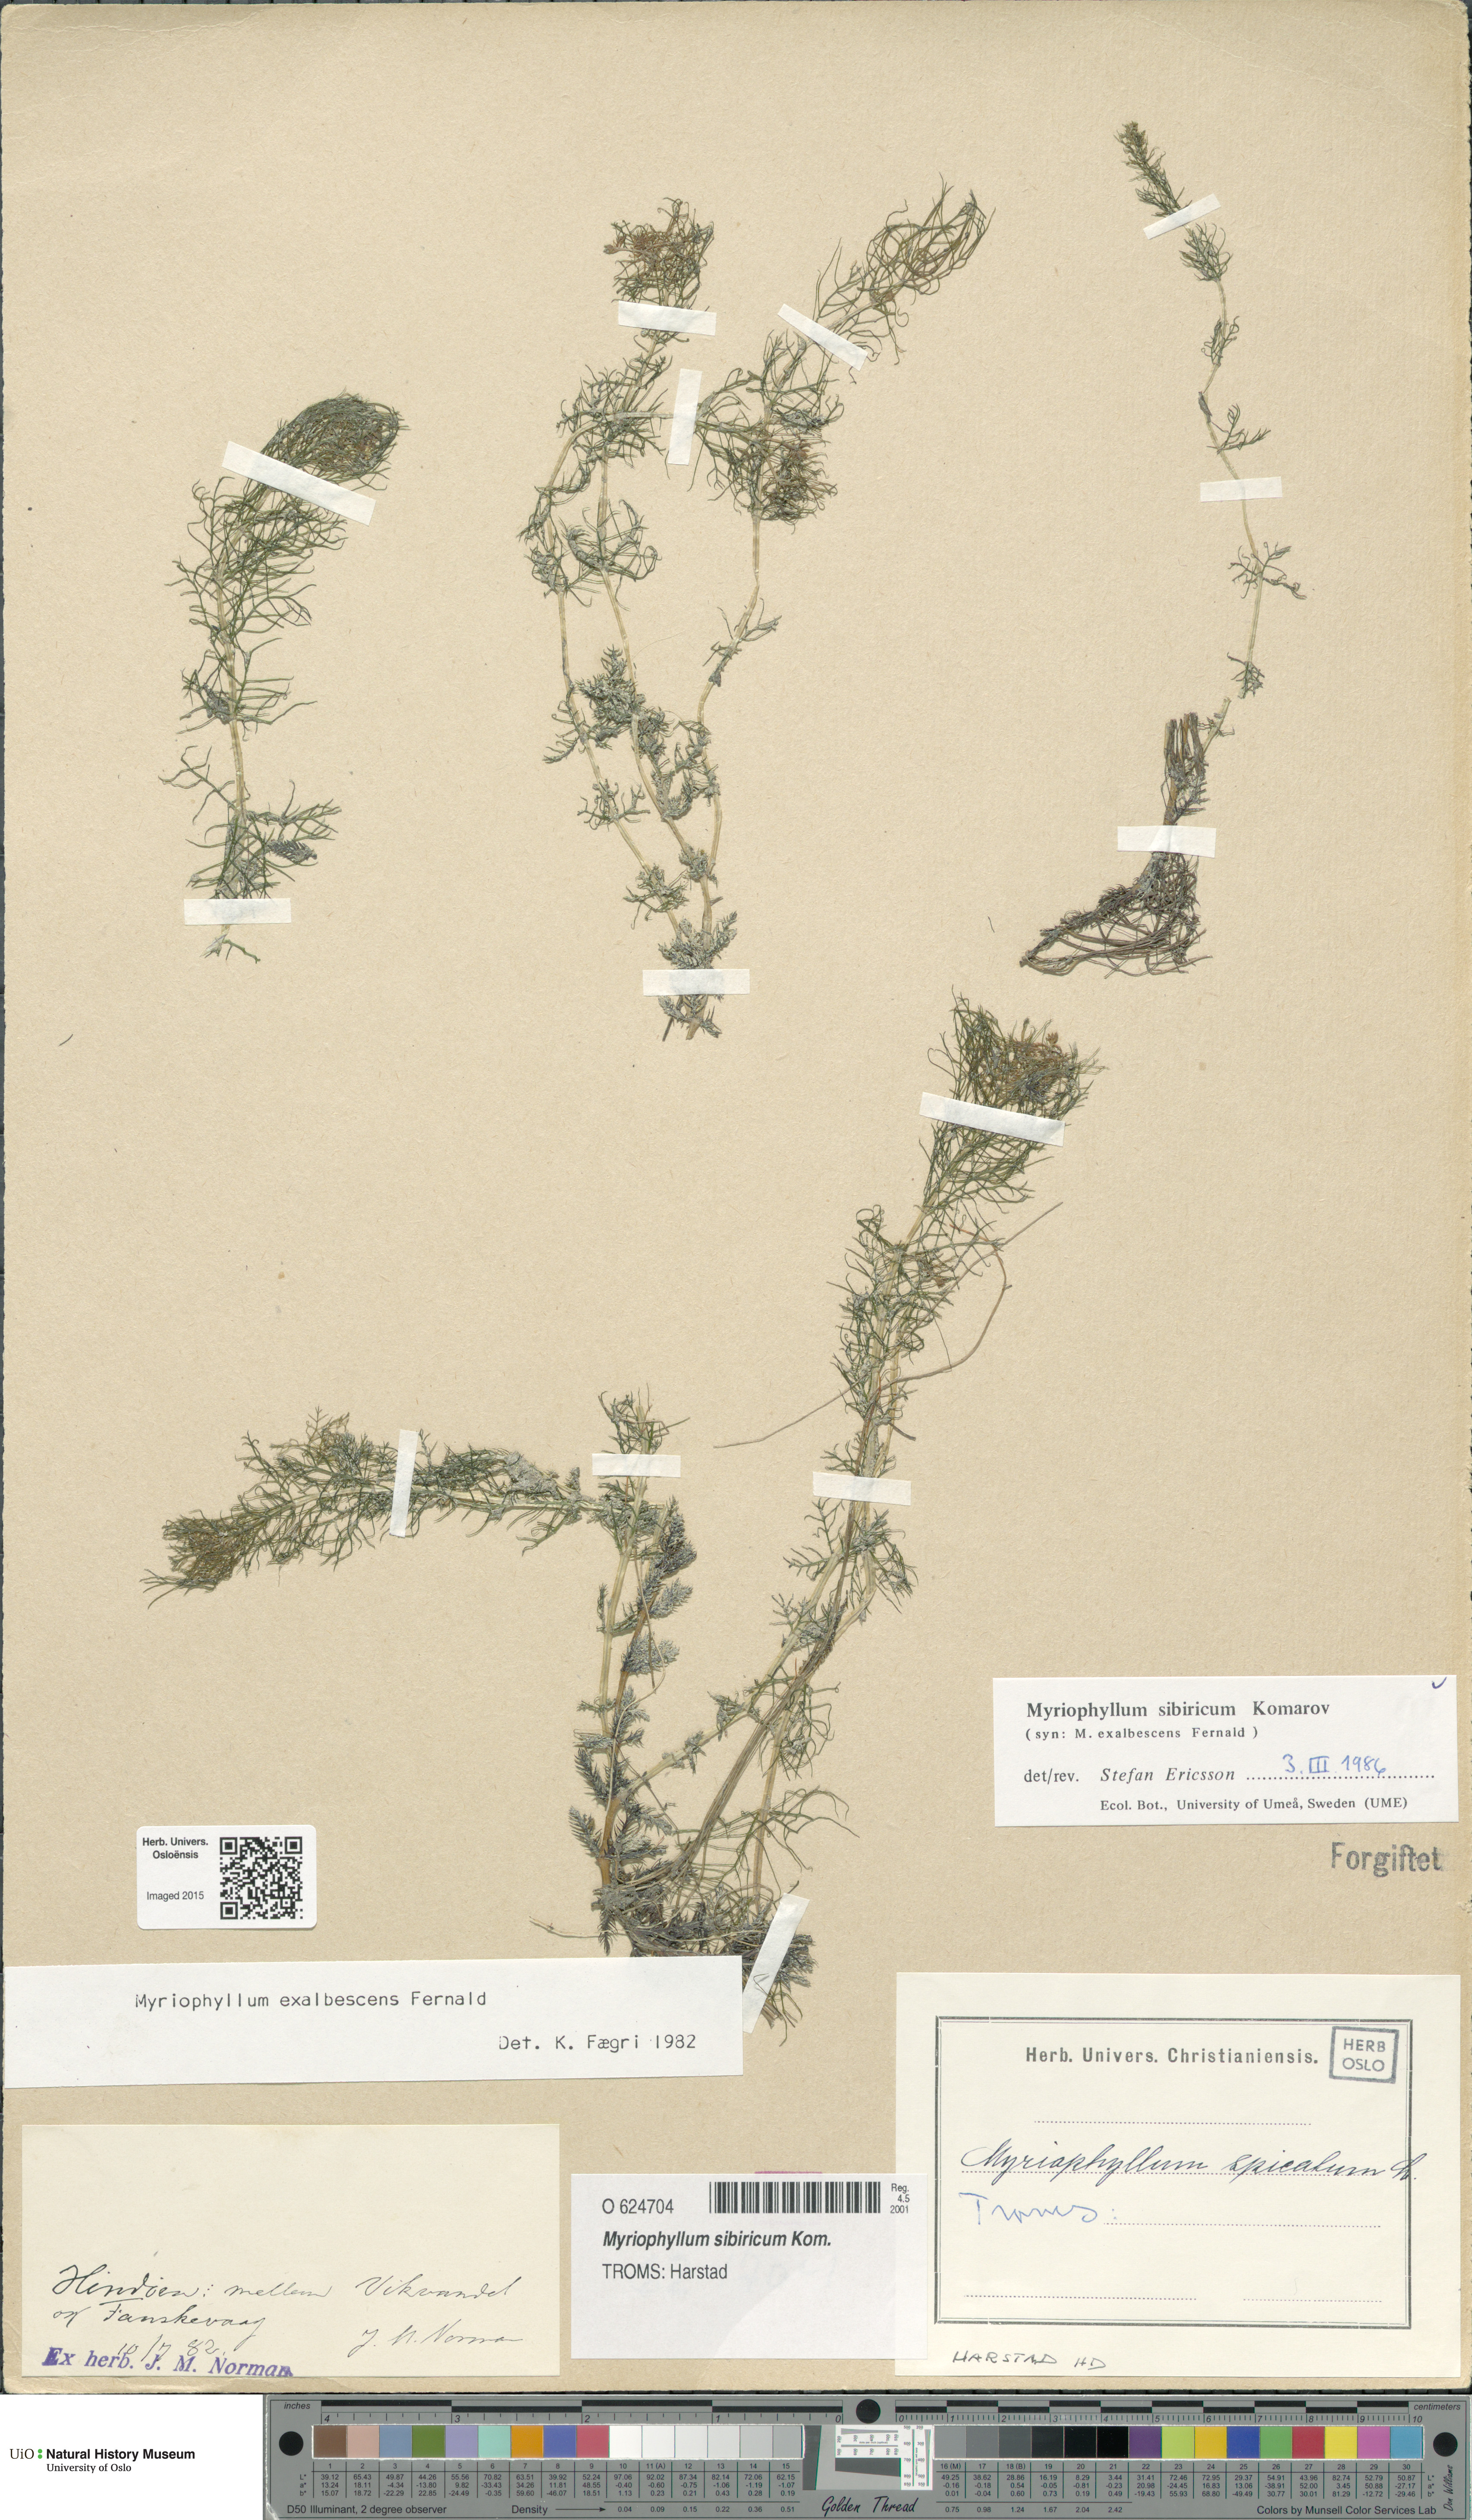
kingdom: Plantae
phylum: Tracheophyta
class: Magnoliopsida
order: Saxifragales
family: Haloragaceae
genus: Myriophyllum
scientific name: Myriophyllum sibiricum
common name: Siberian water-milfoil
